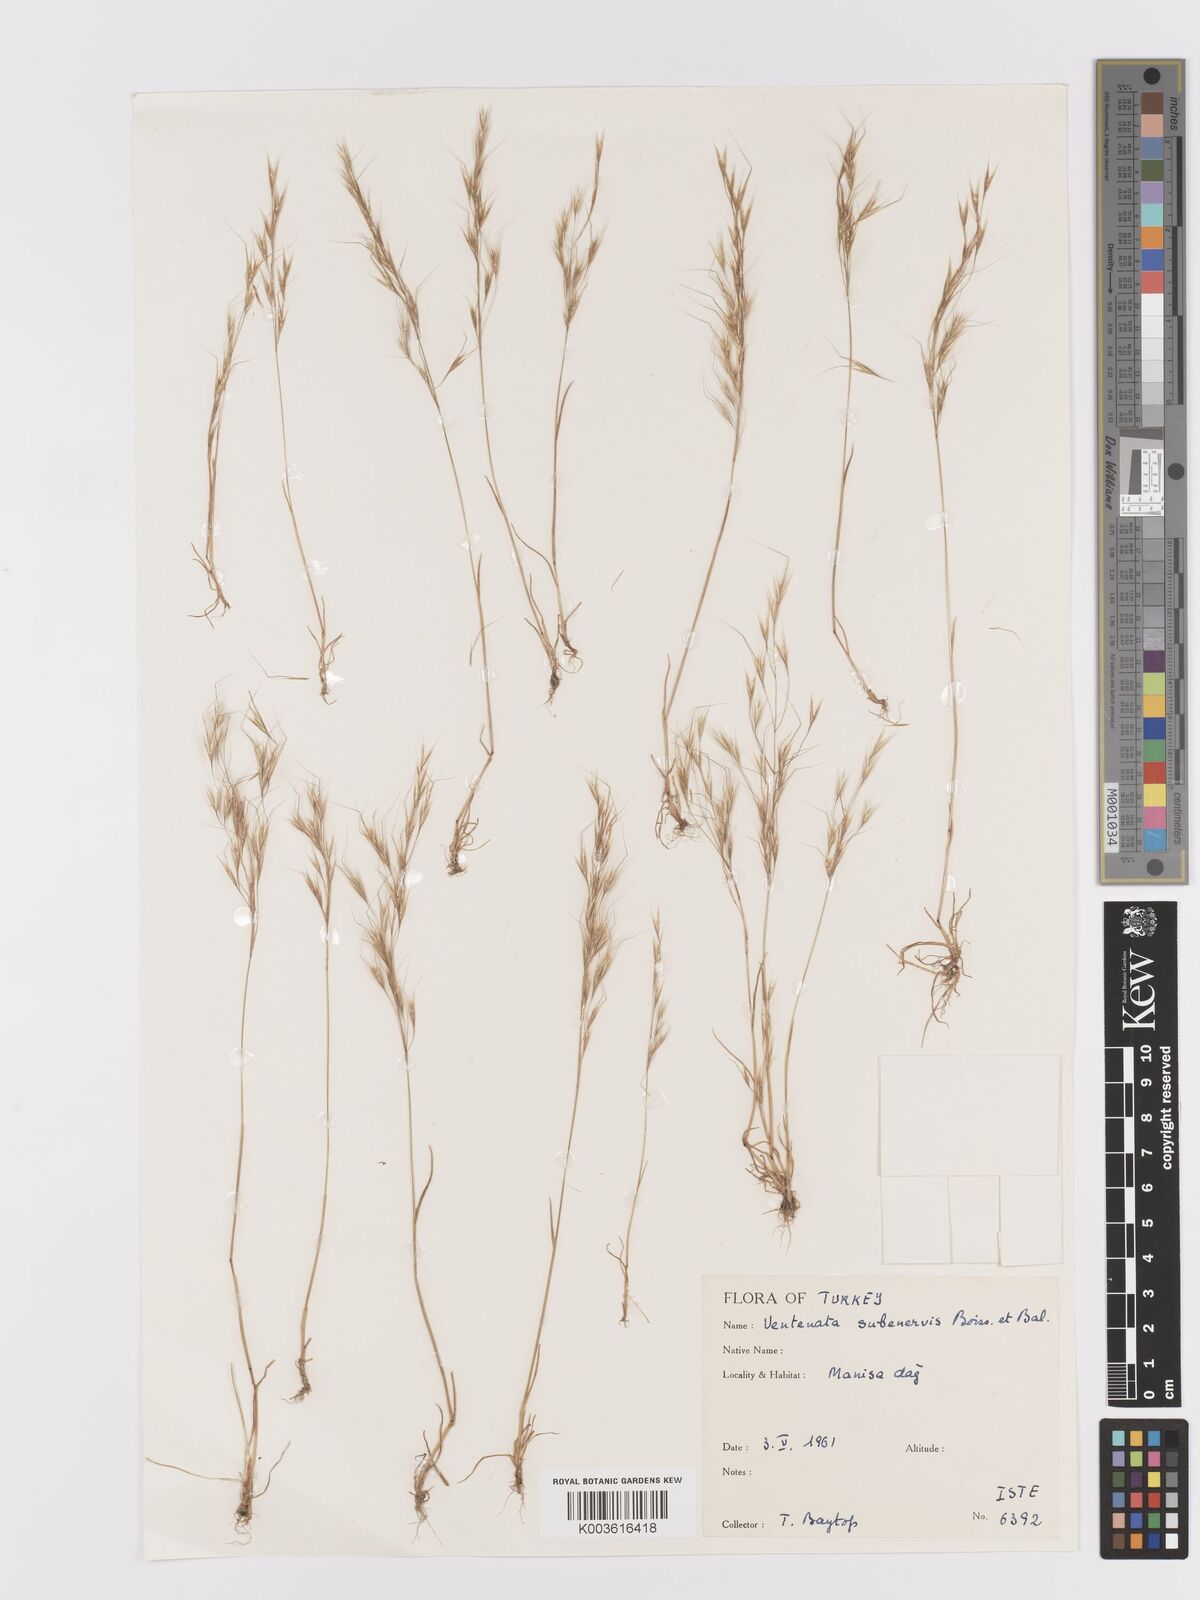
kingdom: Plantae
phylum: Tracheophyta
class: Liliopsida
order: Poales
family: Poaceae
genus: Ventenata
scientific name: Ventenata subenervis
